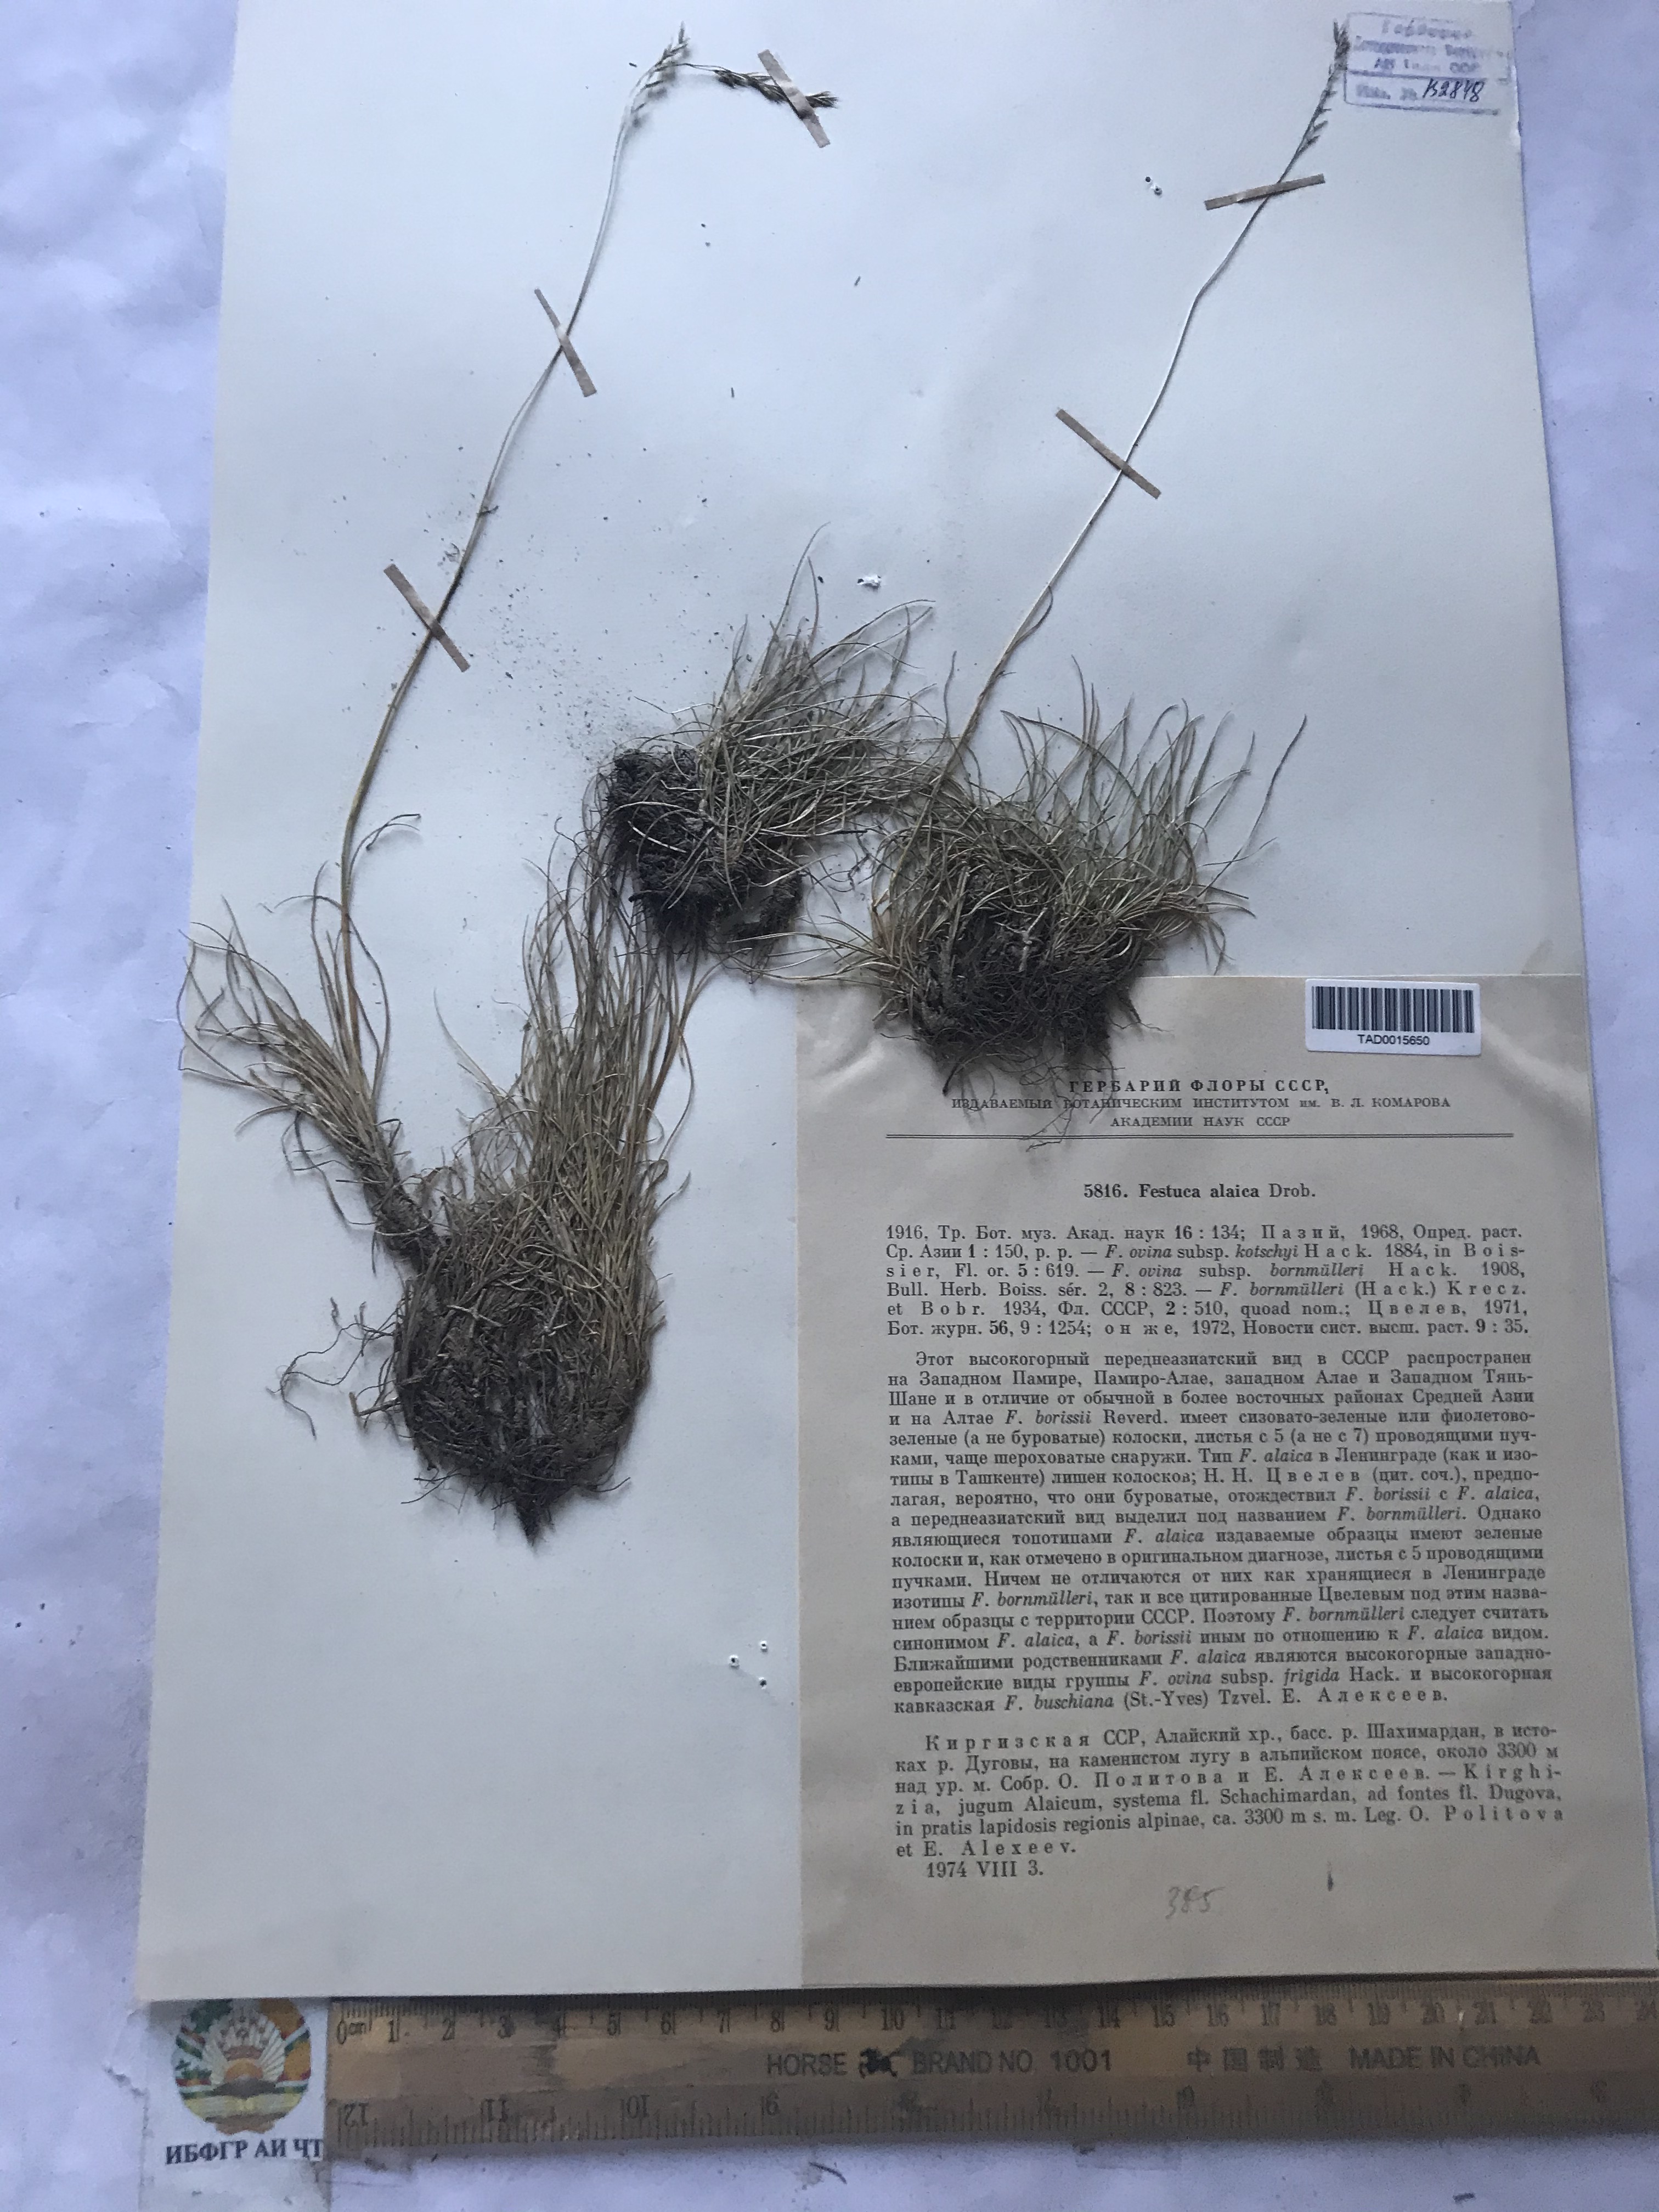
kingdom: Plantae
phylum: Tracheophyta
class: Liliopsida
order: Poales
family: Poaceae
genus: Festuca
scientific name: Festuca alaica
